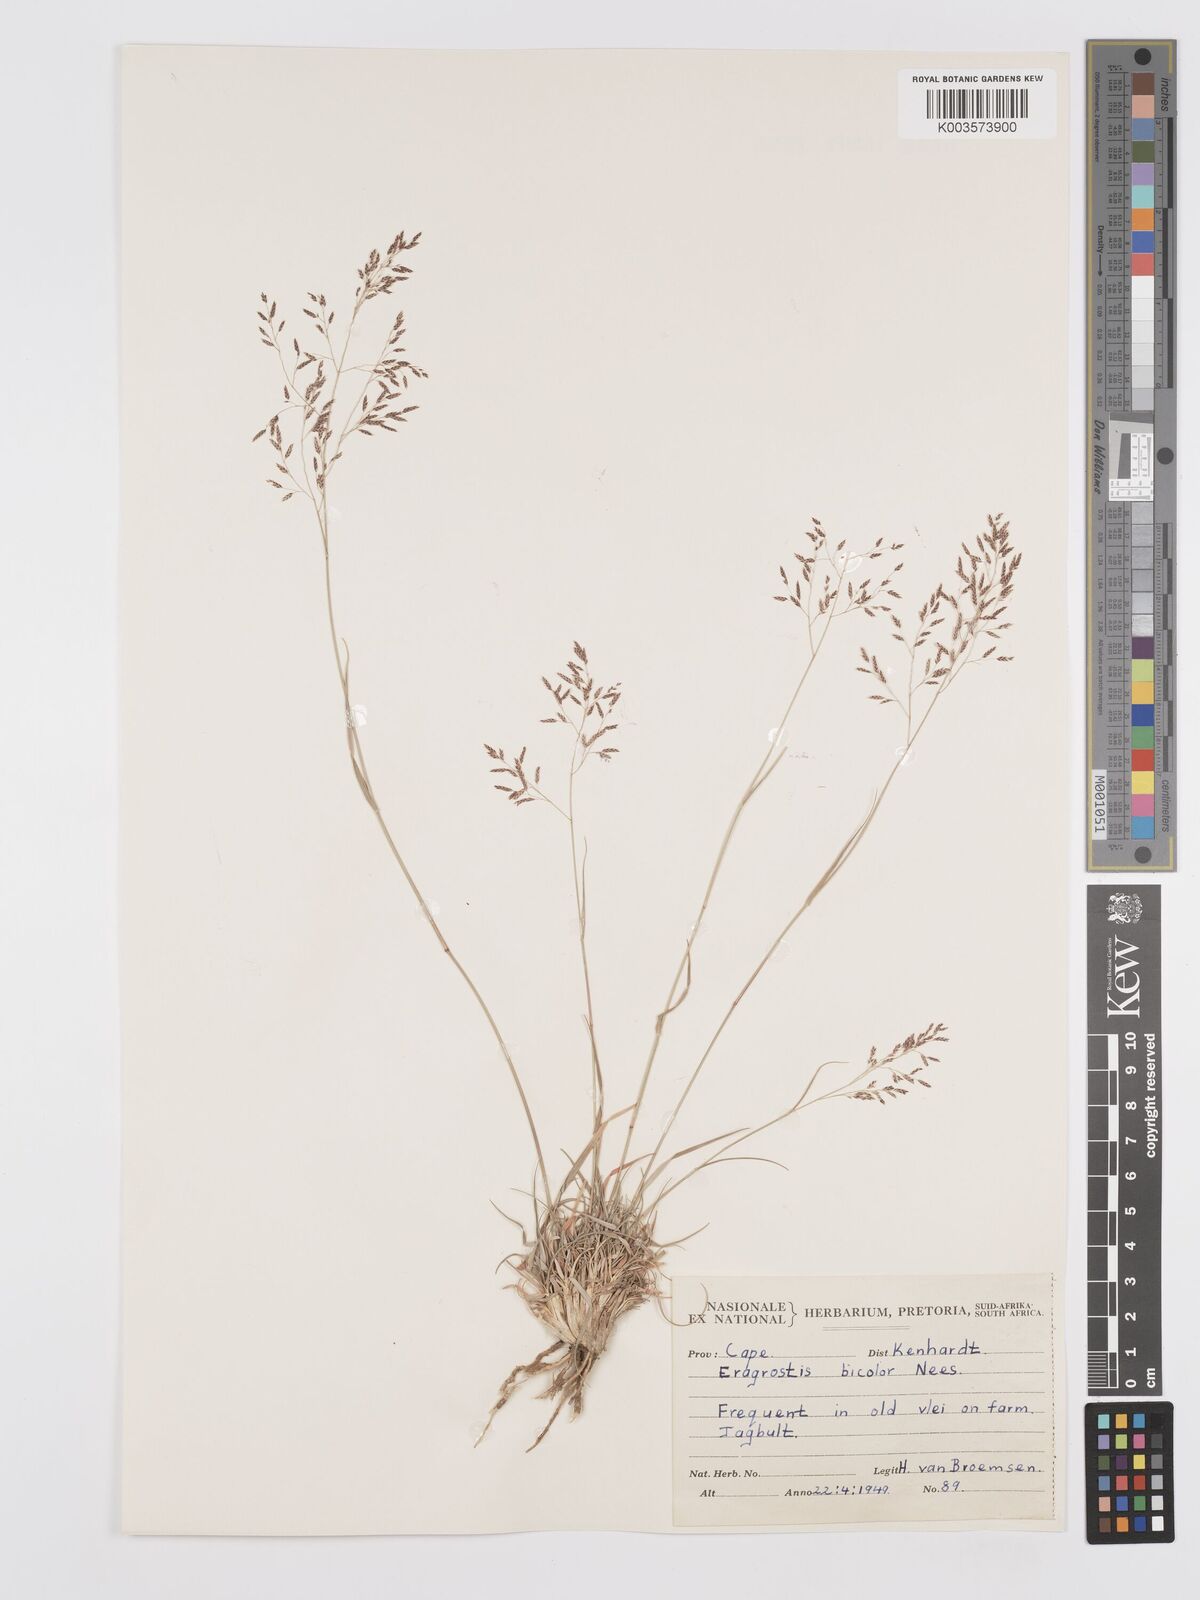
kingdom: Plantae
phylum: Tracheophyta
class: Liliopsida
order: Poales
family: Poaceae
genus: Eragrostis
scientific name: Eragrostis
